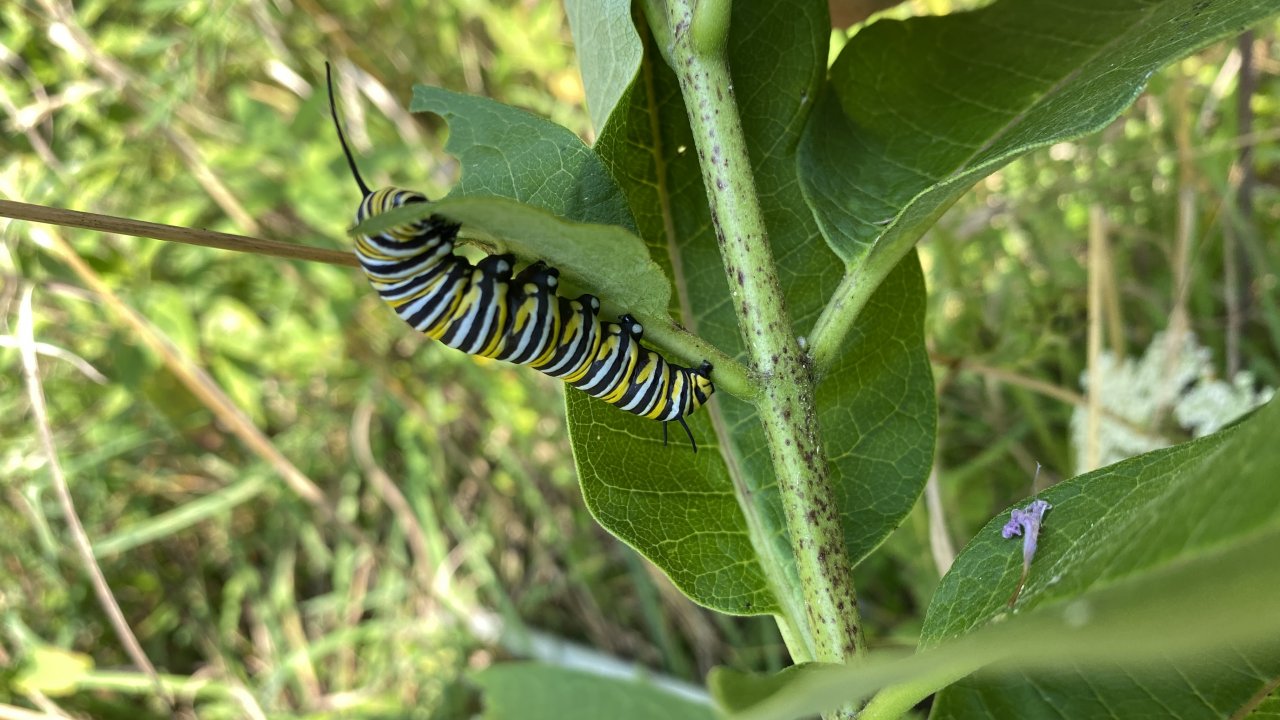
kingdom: Animalia
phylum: Arthropoda
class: Insecta
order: Lepidoptera
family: Nymphalidae
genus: Danaus
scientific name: Danaus plexippus
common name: Monarch
